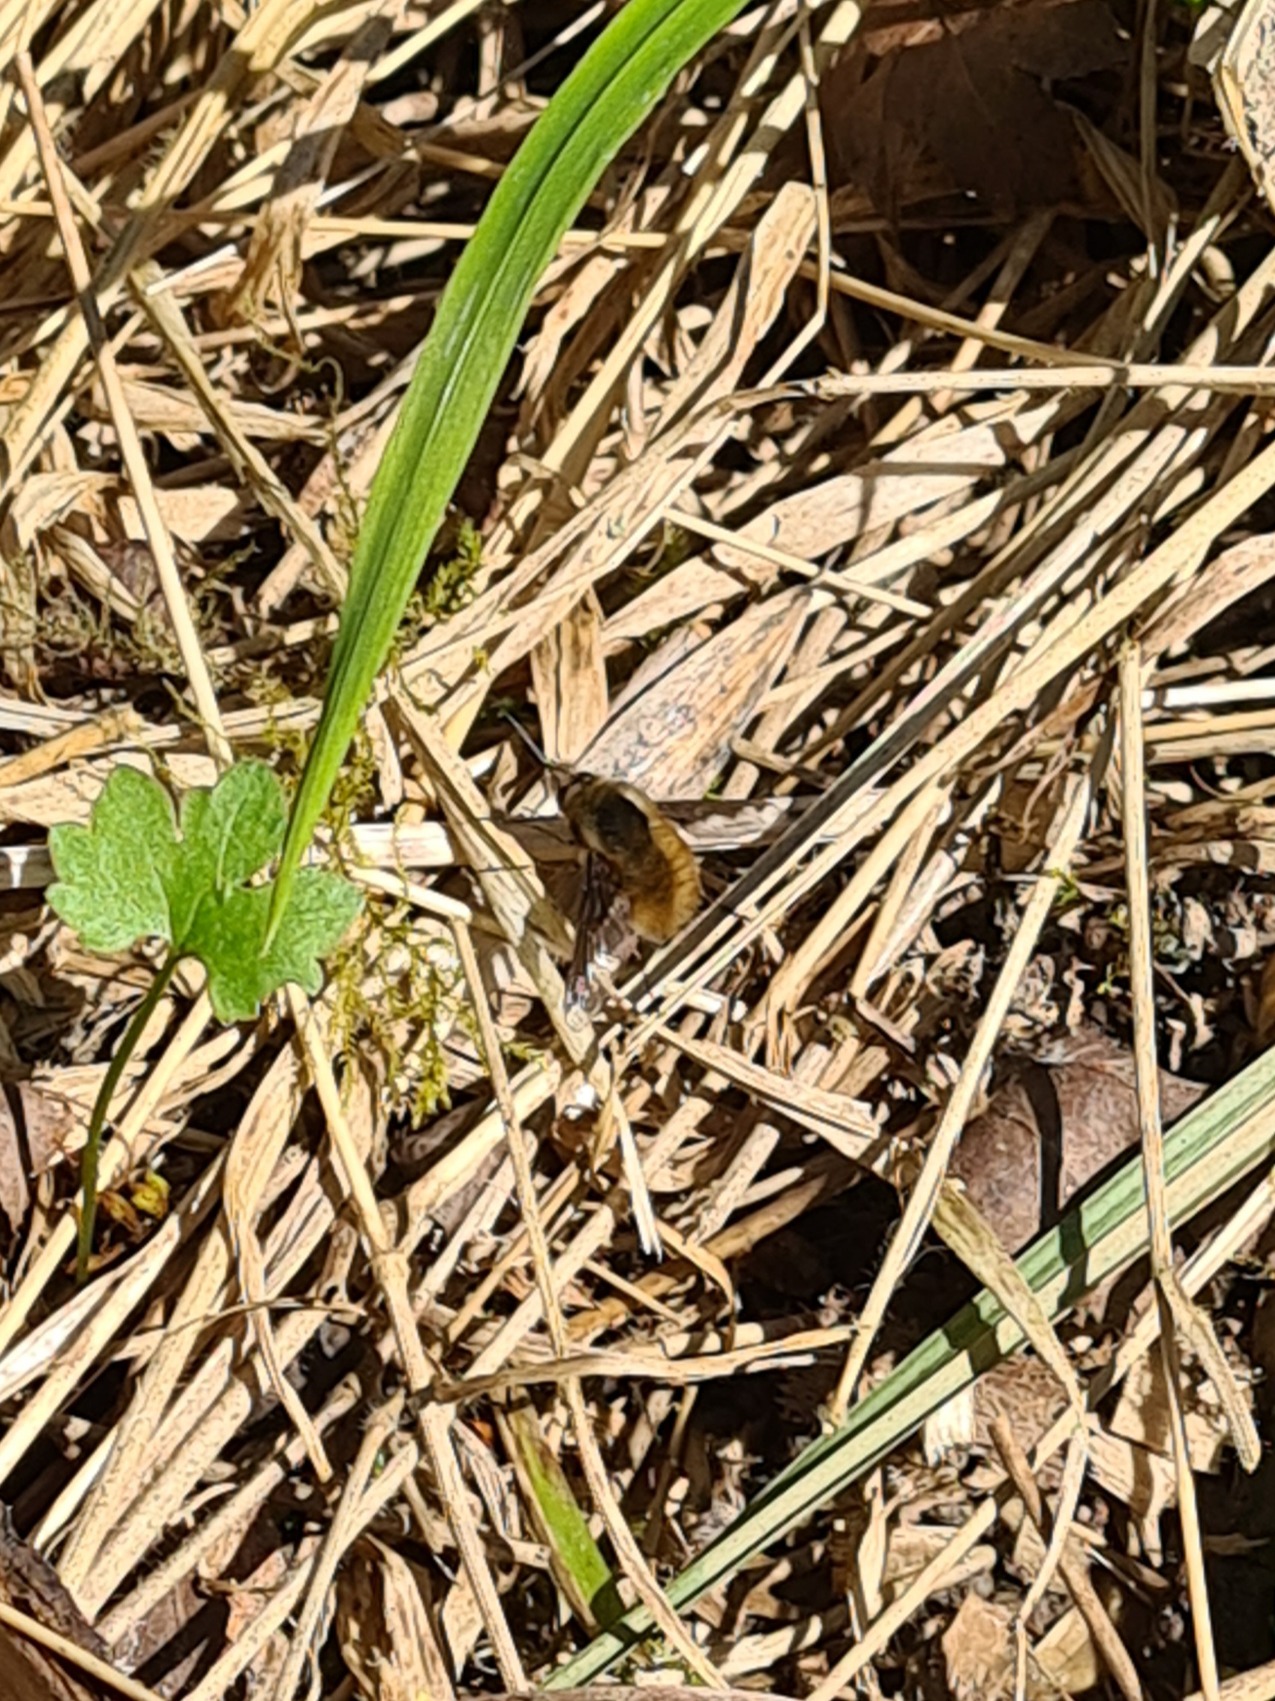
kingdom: Animalia
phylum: Arthropoda
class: Insecta
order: Diptera
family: Bombyliidae
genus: Bombylius
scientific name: Bombylius major
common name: Stor humleflue
